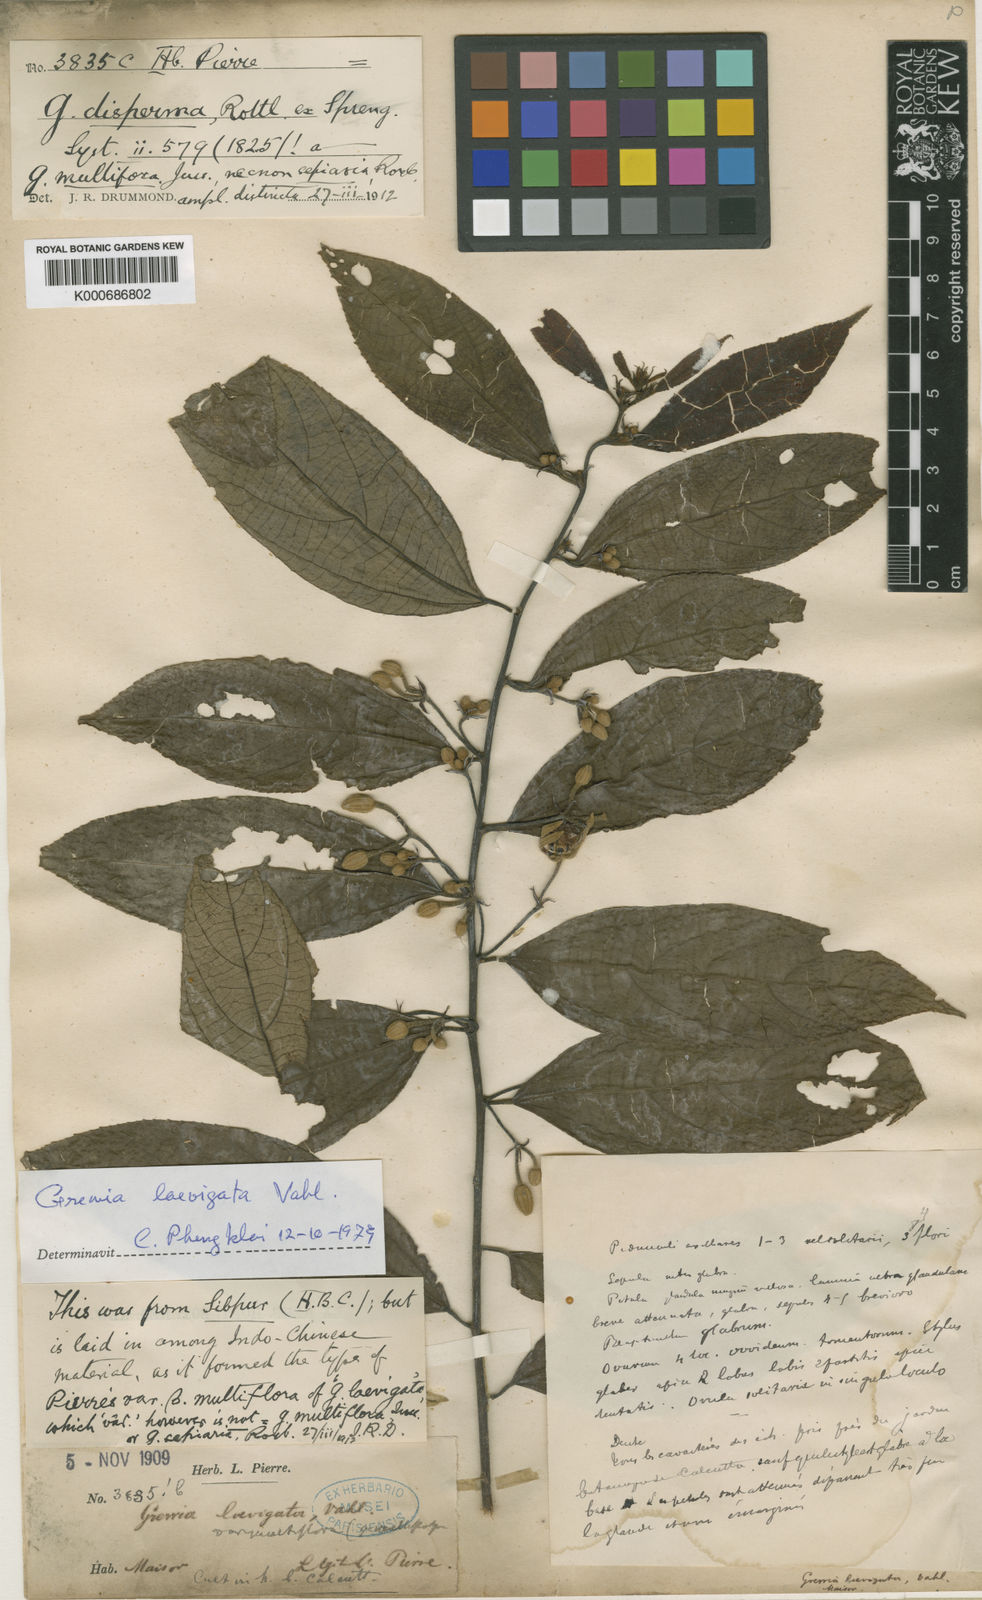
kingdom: Plantae
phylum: Tracheophyta
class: Magnoliopsida
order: Malvales
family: Malvaceae
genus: Grewia
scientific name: Grewia laevigata
